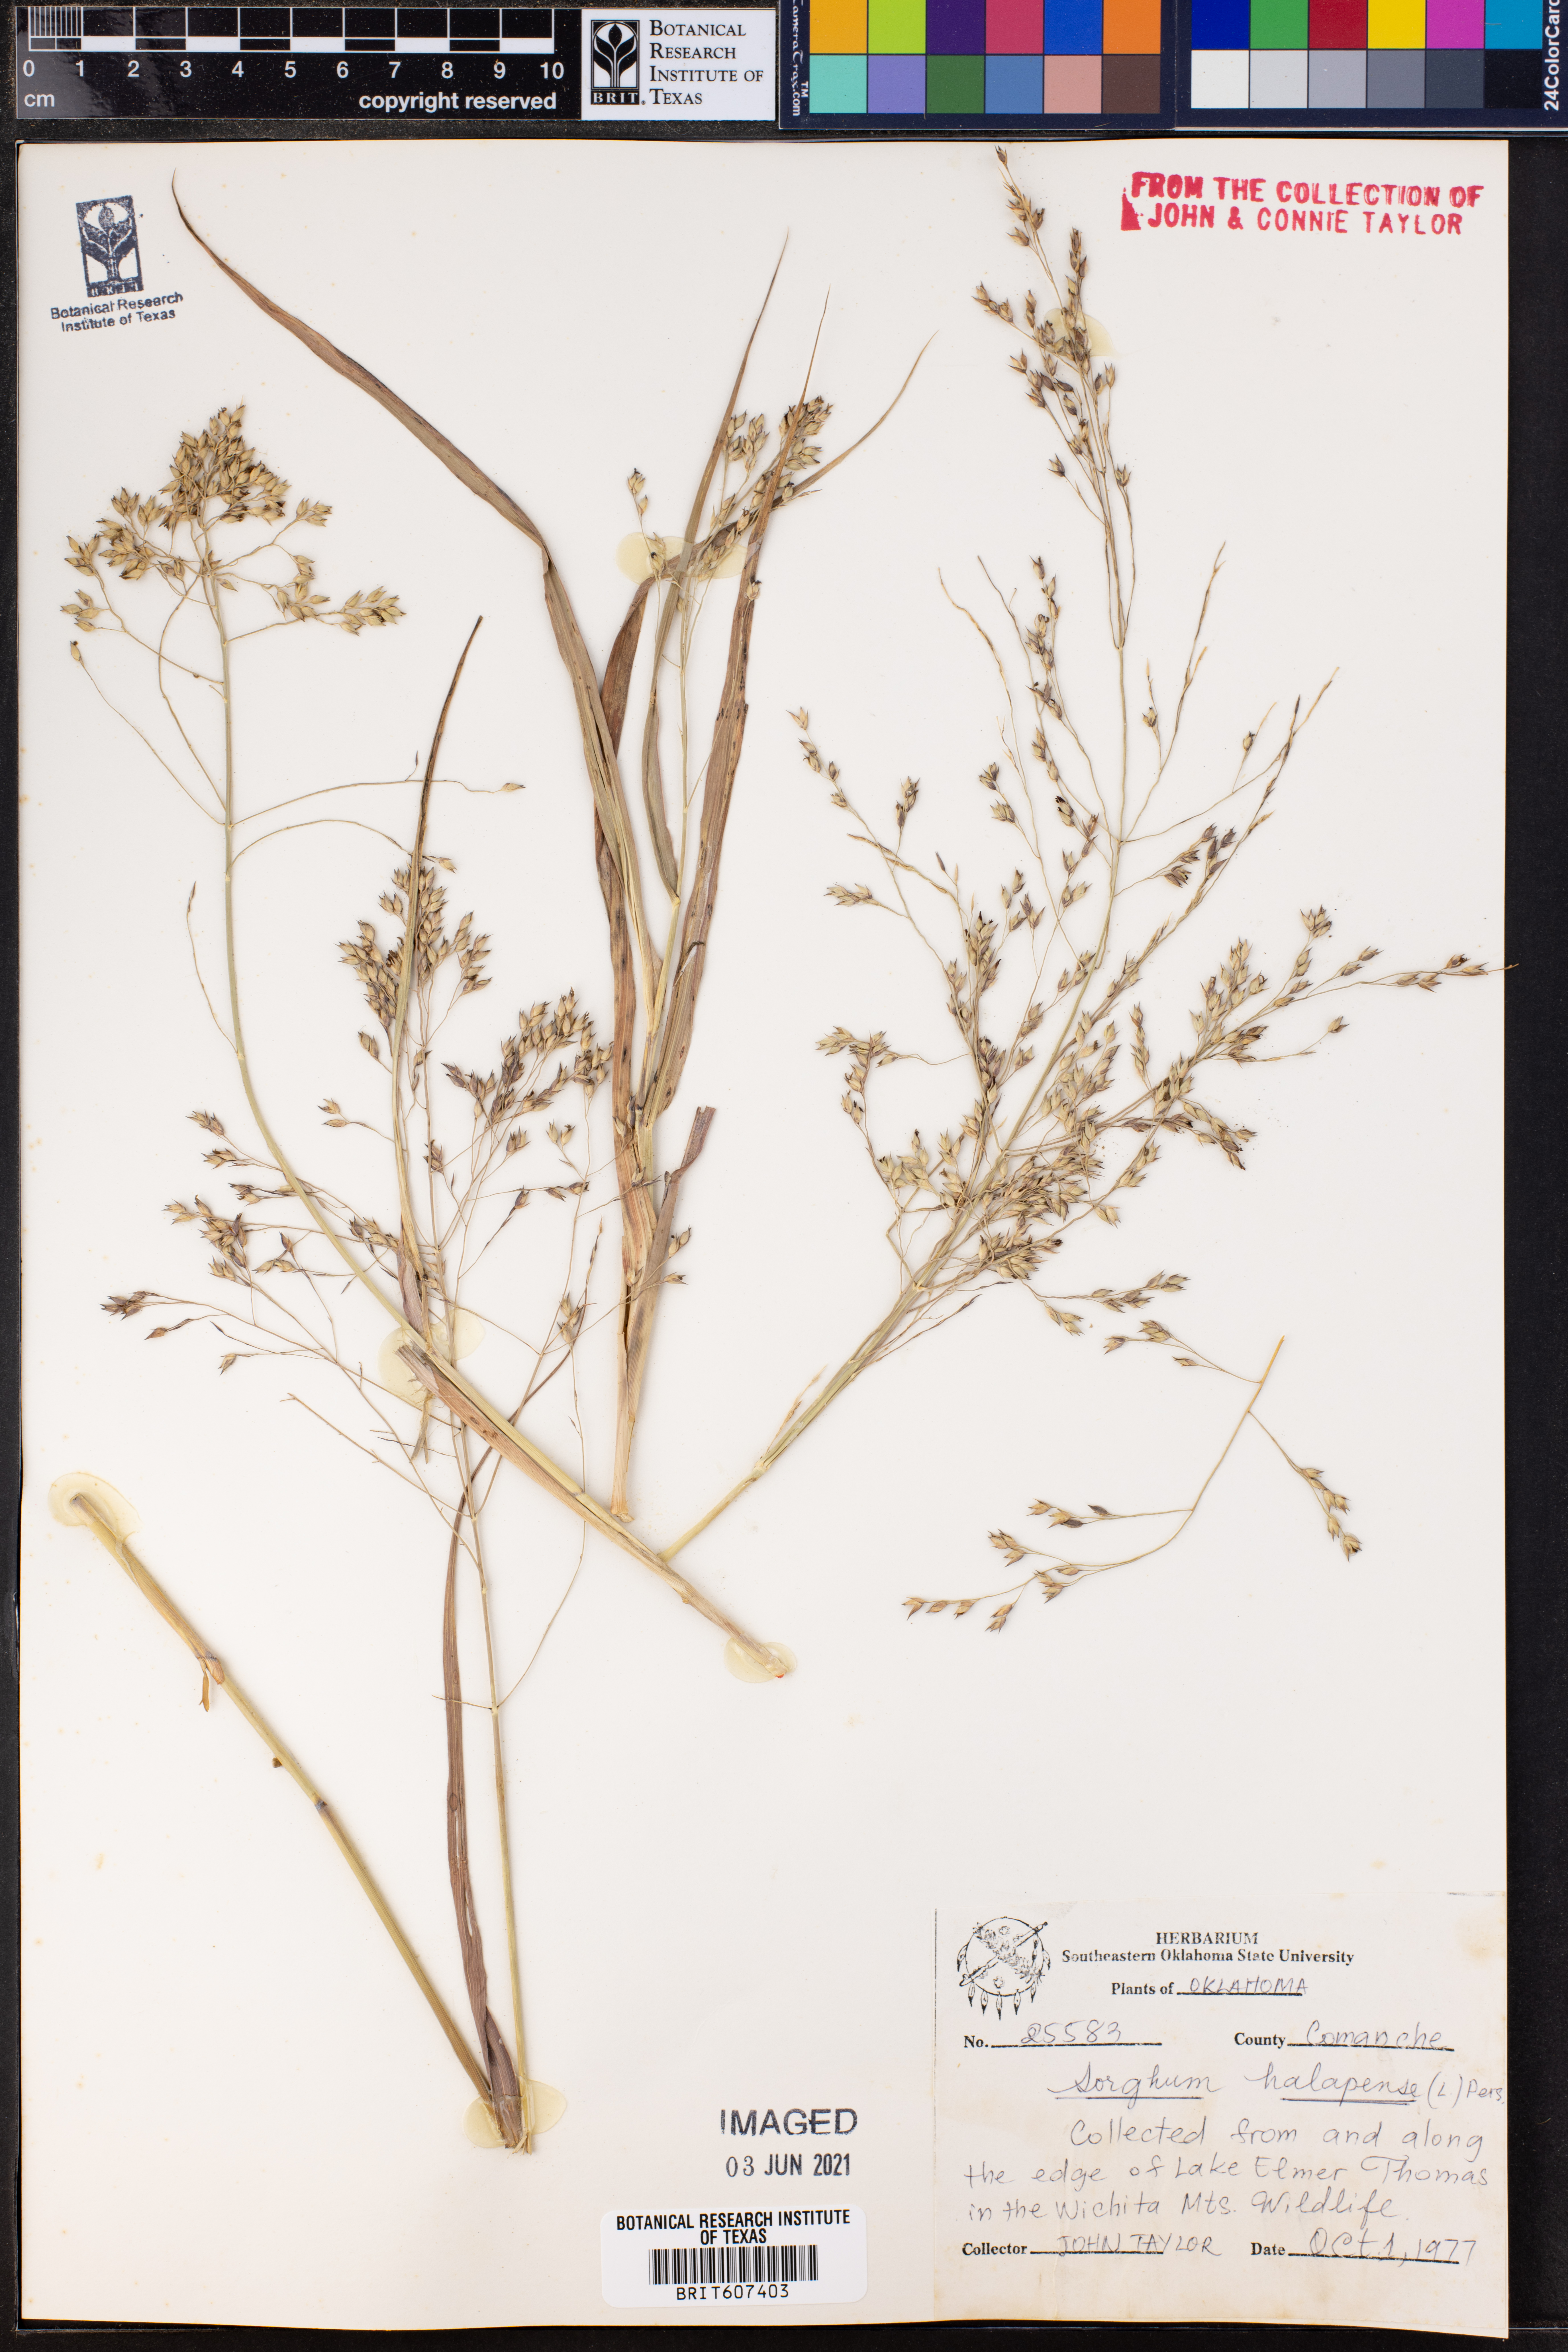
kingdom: Plantae
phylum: Tracheophyta
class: Liliopsida
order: Poales
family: Poaceae
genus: Sorghum
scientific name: Sorghum halepense
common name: Johnson-grass
